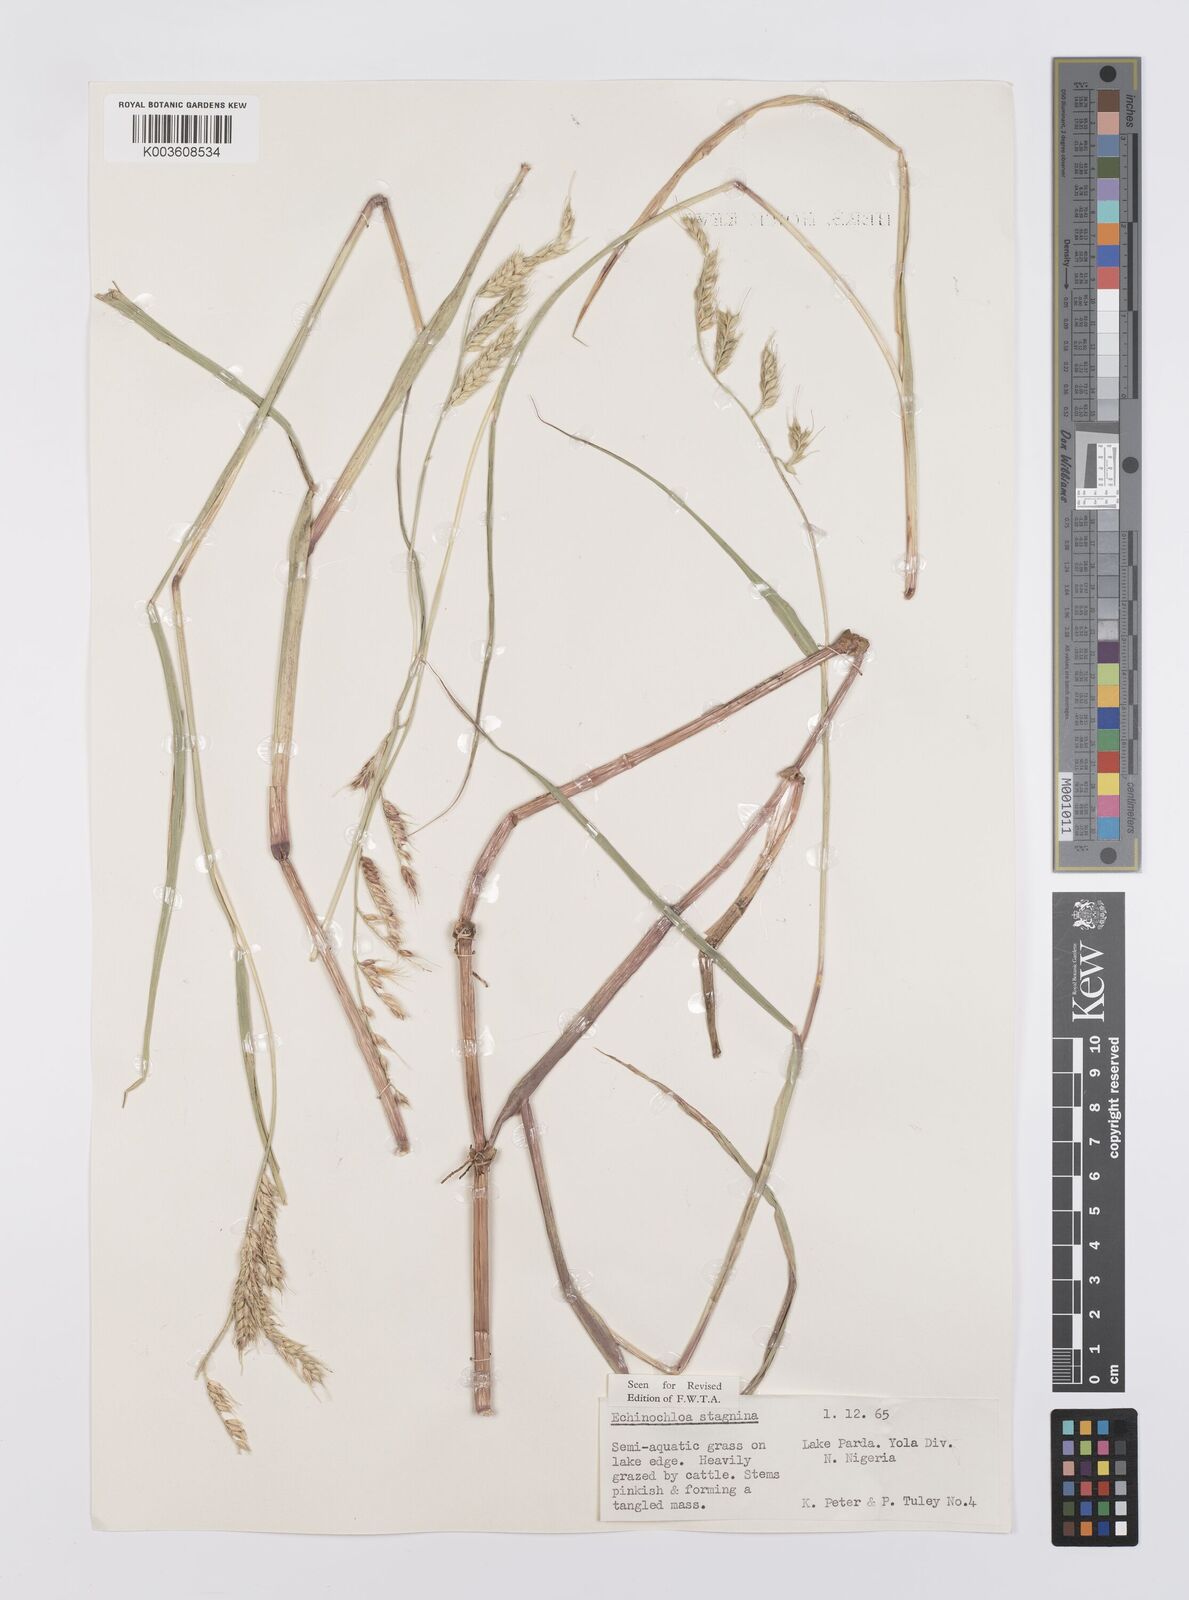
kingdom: Plantae
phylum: Tracheophyta
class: Liliopsida
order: Poales
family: Poaceae
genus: Echinochloa
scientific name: Echinochloa stagnina
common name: Burgu grass
